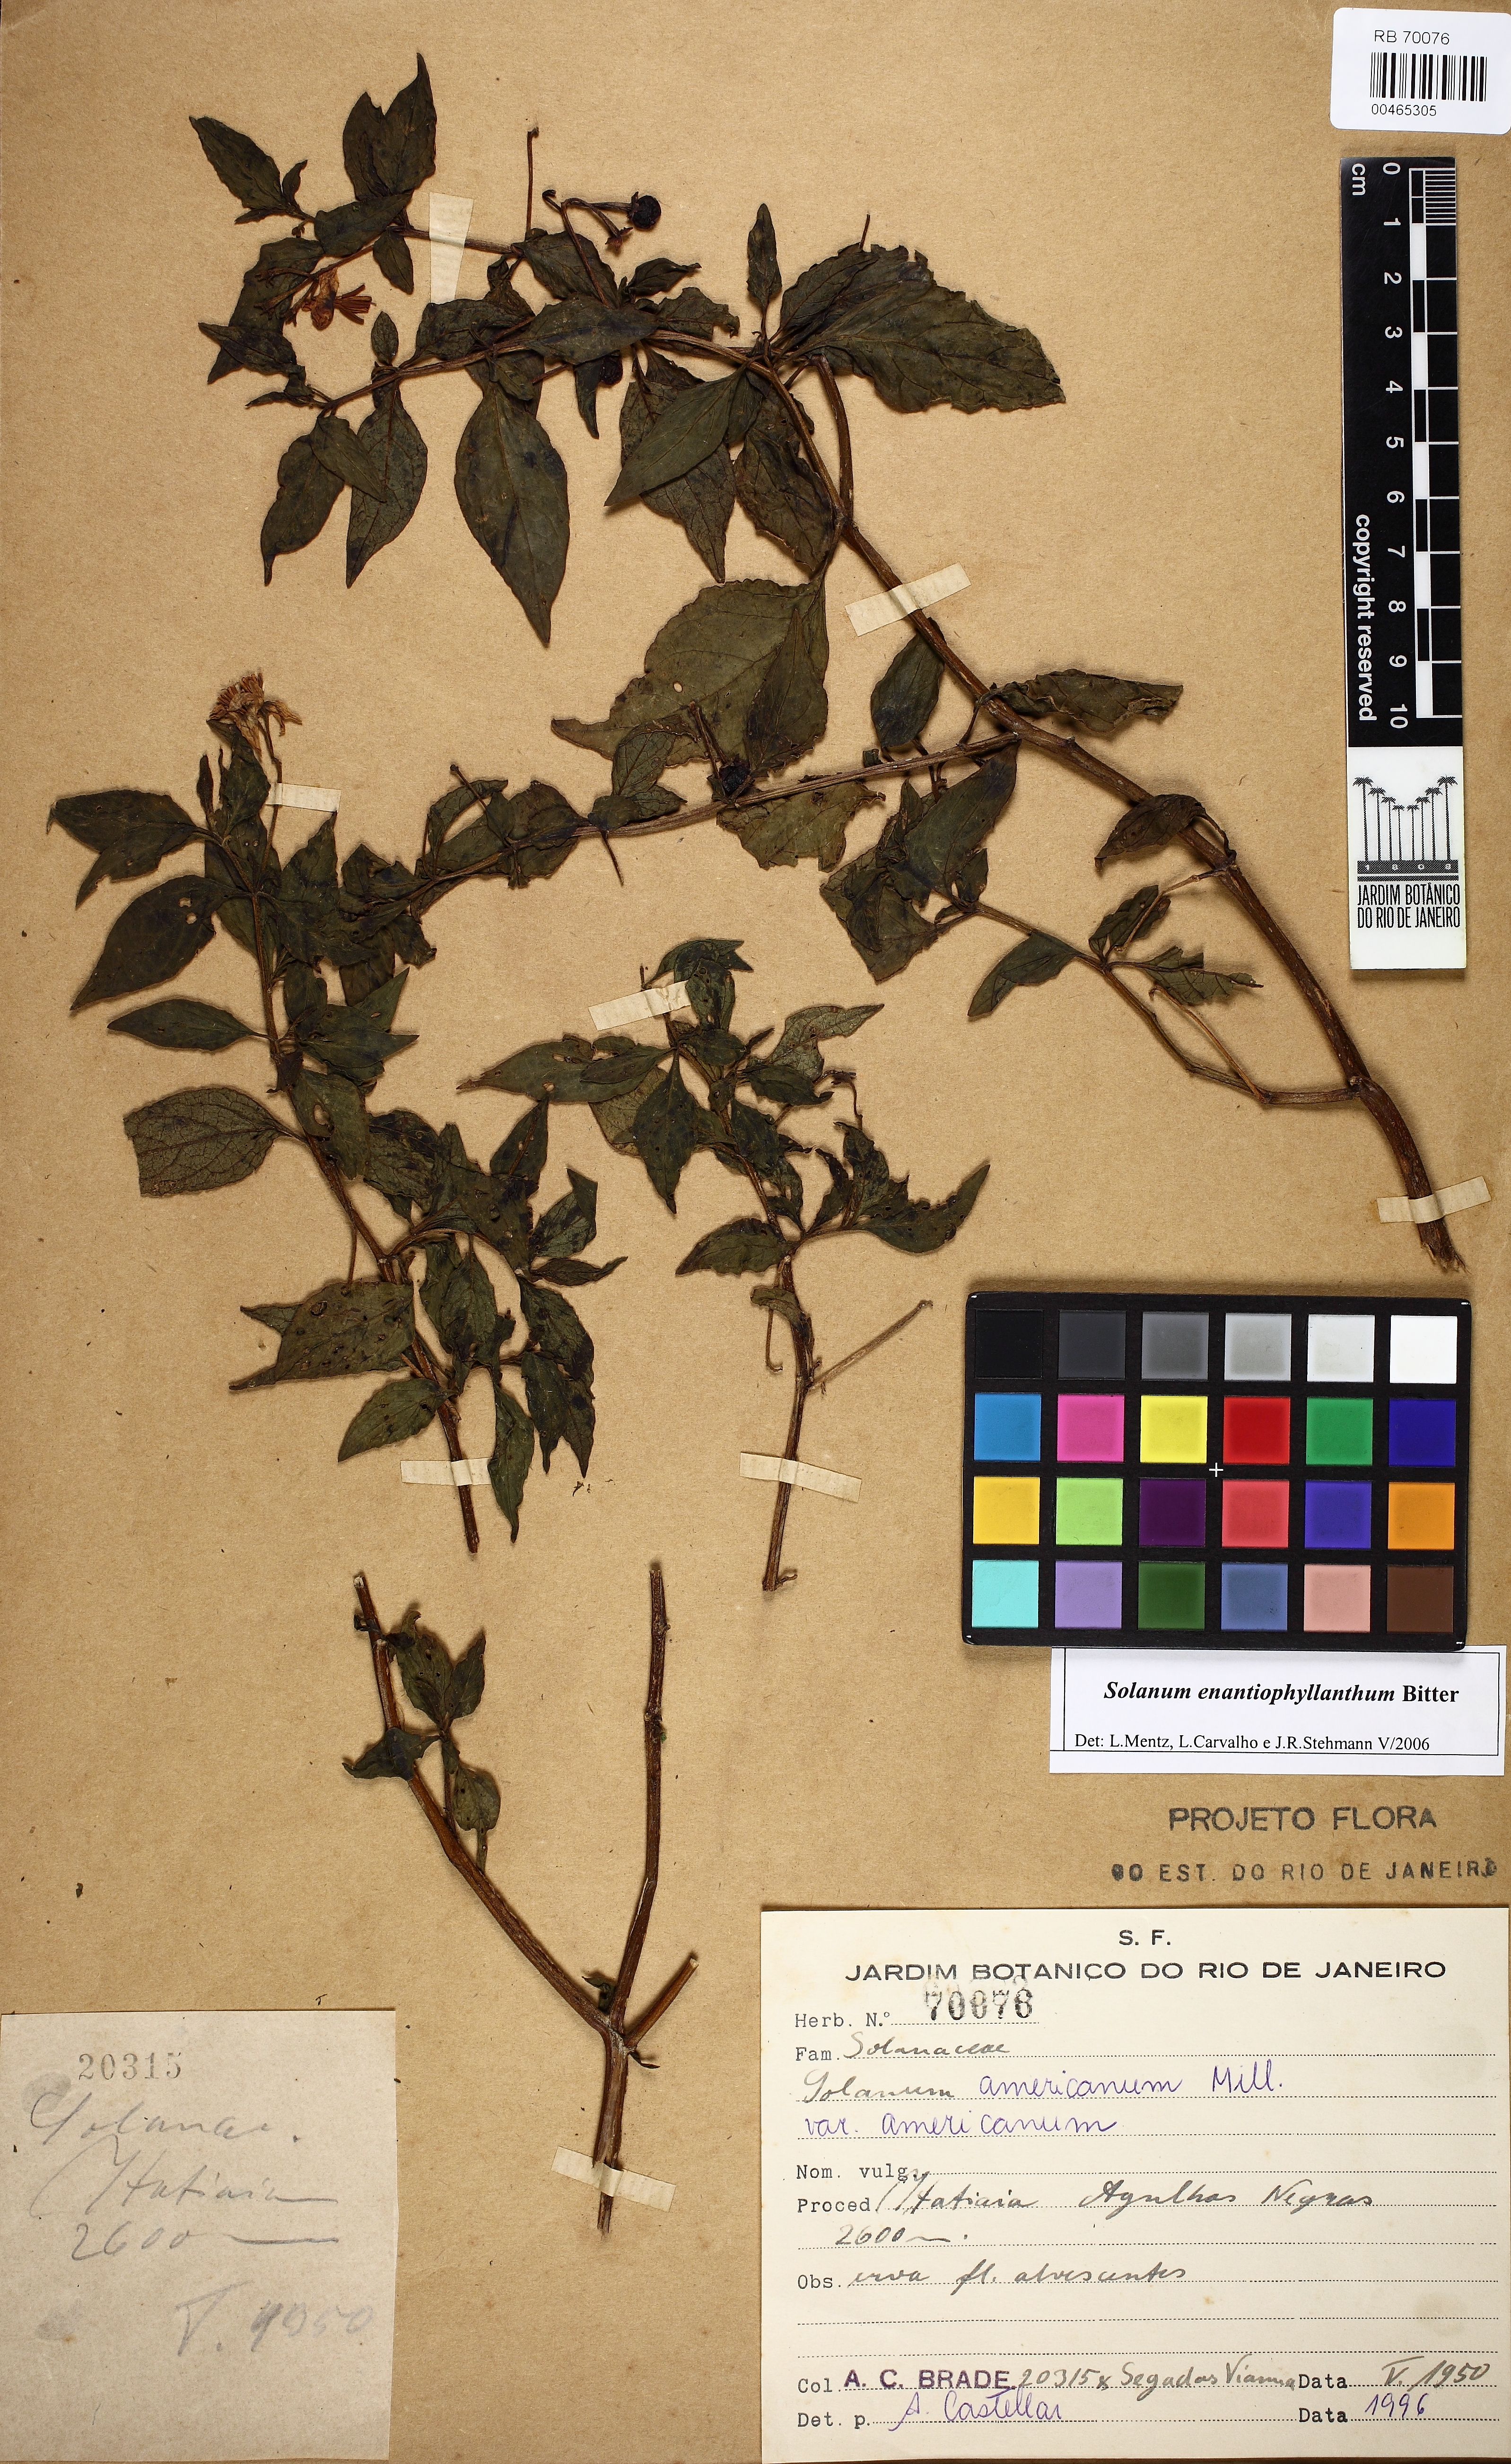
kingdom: Plantae
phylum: Tracheophyta
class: Magnoliopsida
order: Solanales
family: Solanaceae
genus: Solanum
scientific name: Solanum enantiophyllanthum
